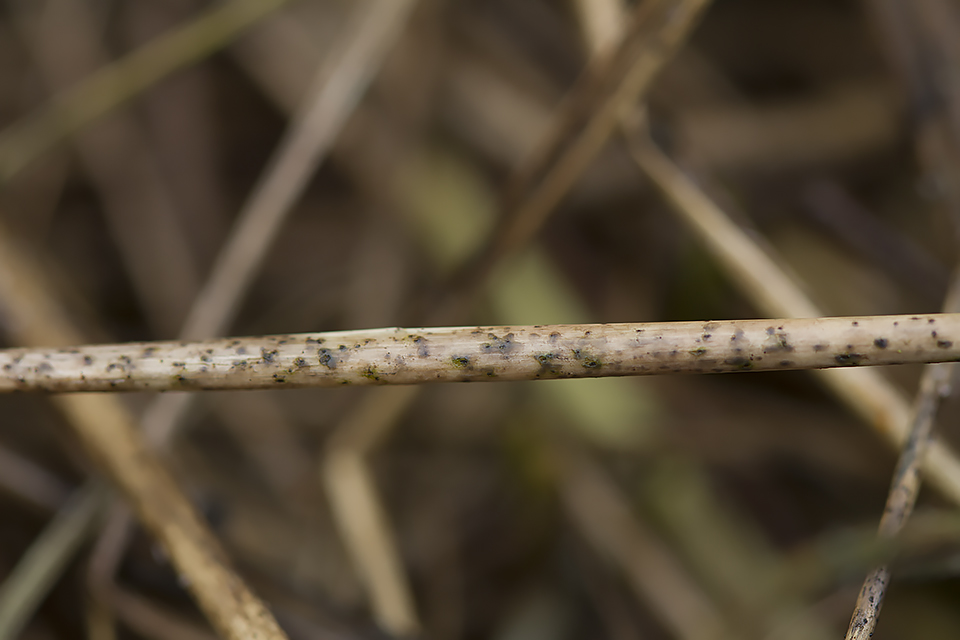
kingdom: Fungi
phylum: Ascomycota
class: Dothideomycetes
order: Pleosporales
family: Pleosporaceae
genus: Pleospora
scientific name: Pleospora
